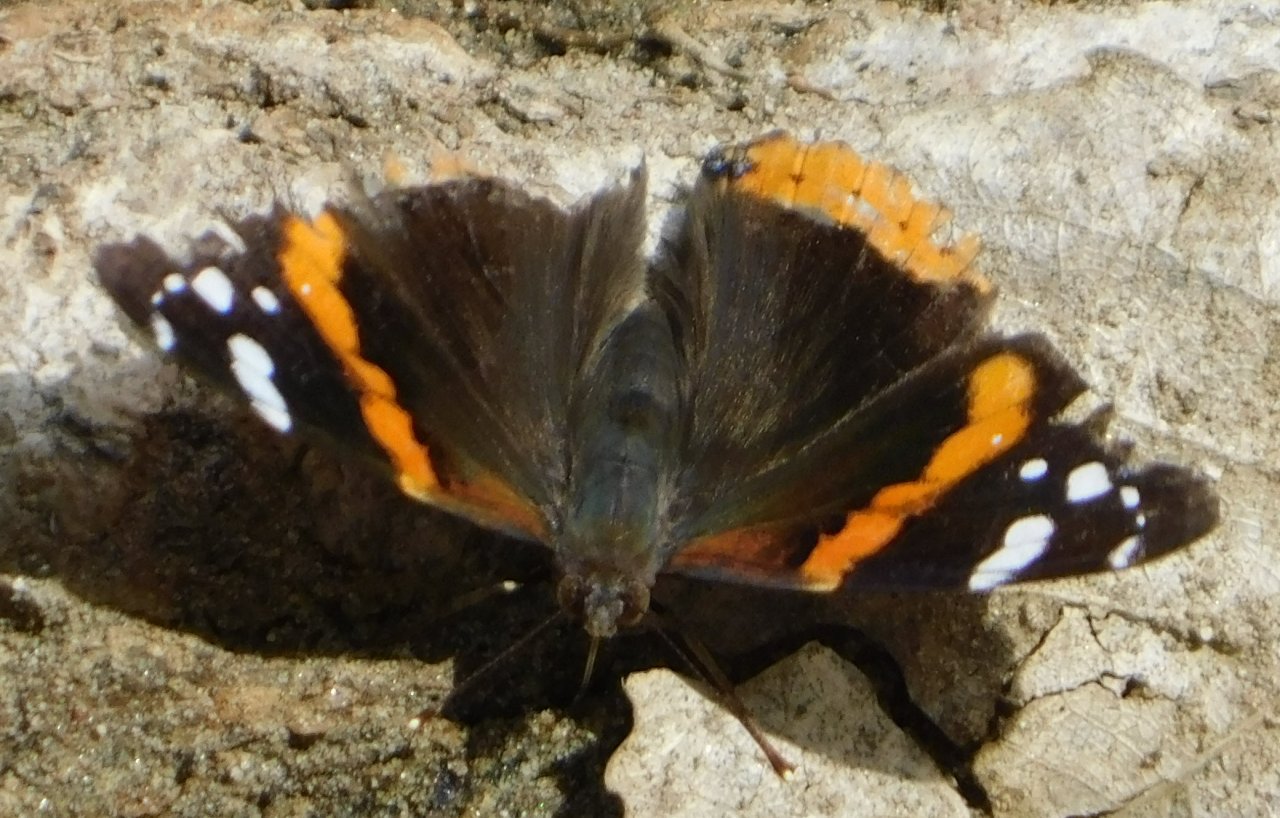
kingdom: Animalia
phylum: Arthropoda
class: Insecta
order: Lepidoptera
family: Nymphalidae
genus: Vanessa
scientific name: Vanessa atalanta
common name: Red Admiral
